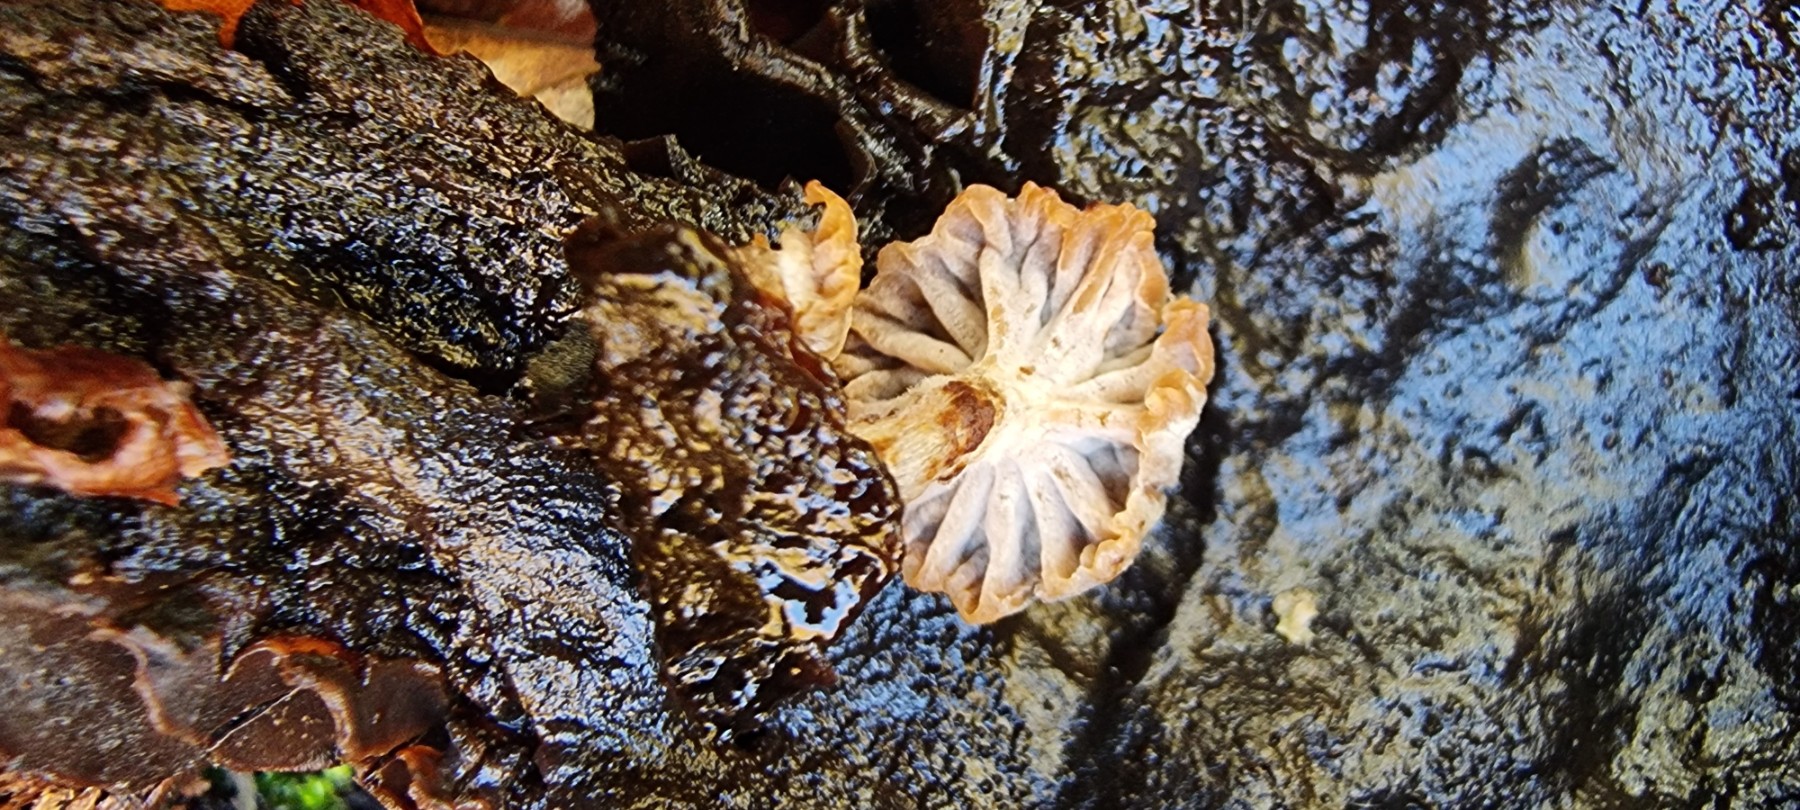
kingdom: Fungi
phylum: Basidiomycota
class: Agaricomycetes
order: Agaricales
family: Lyophyllaceae
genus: Asterophora
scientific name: Asterophora parasitica
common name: grå snyltehat
